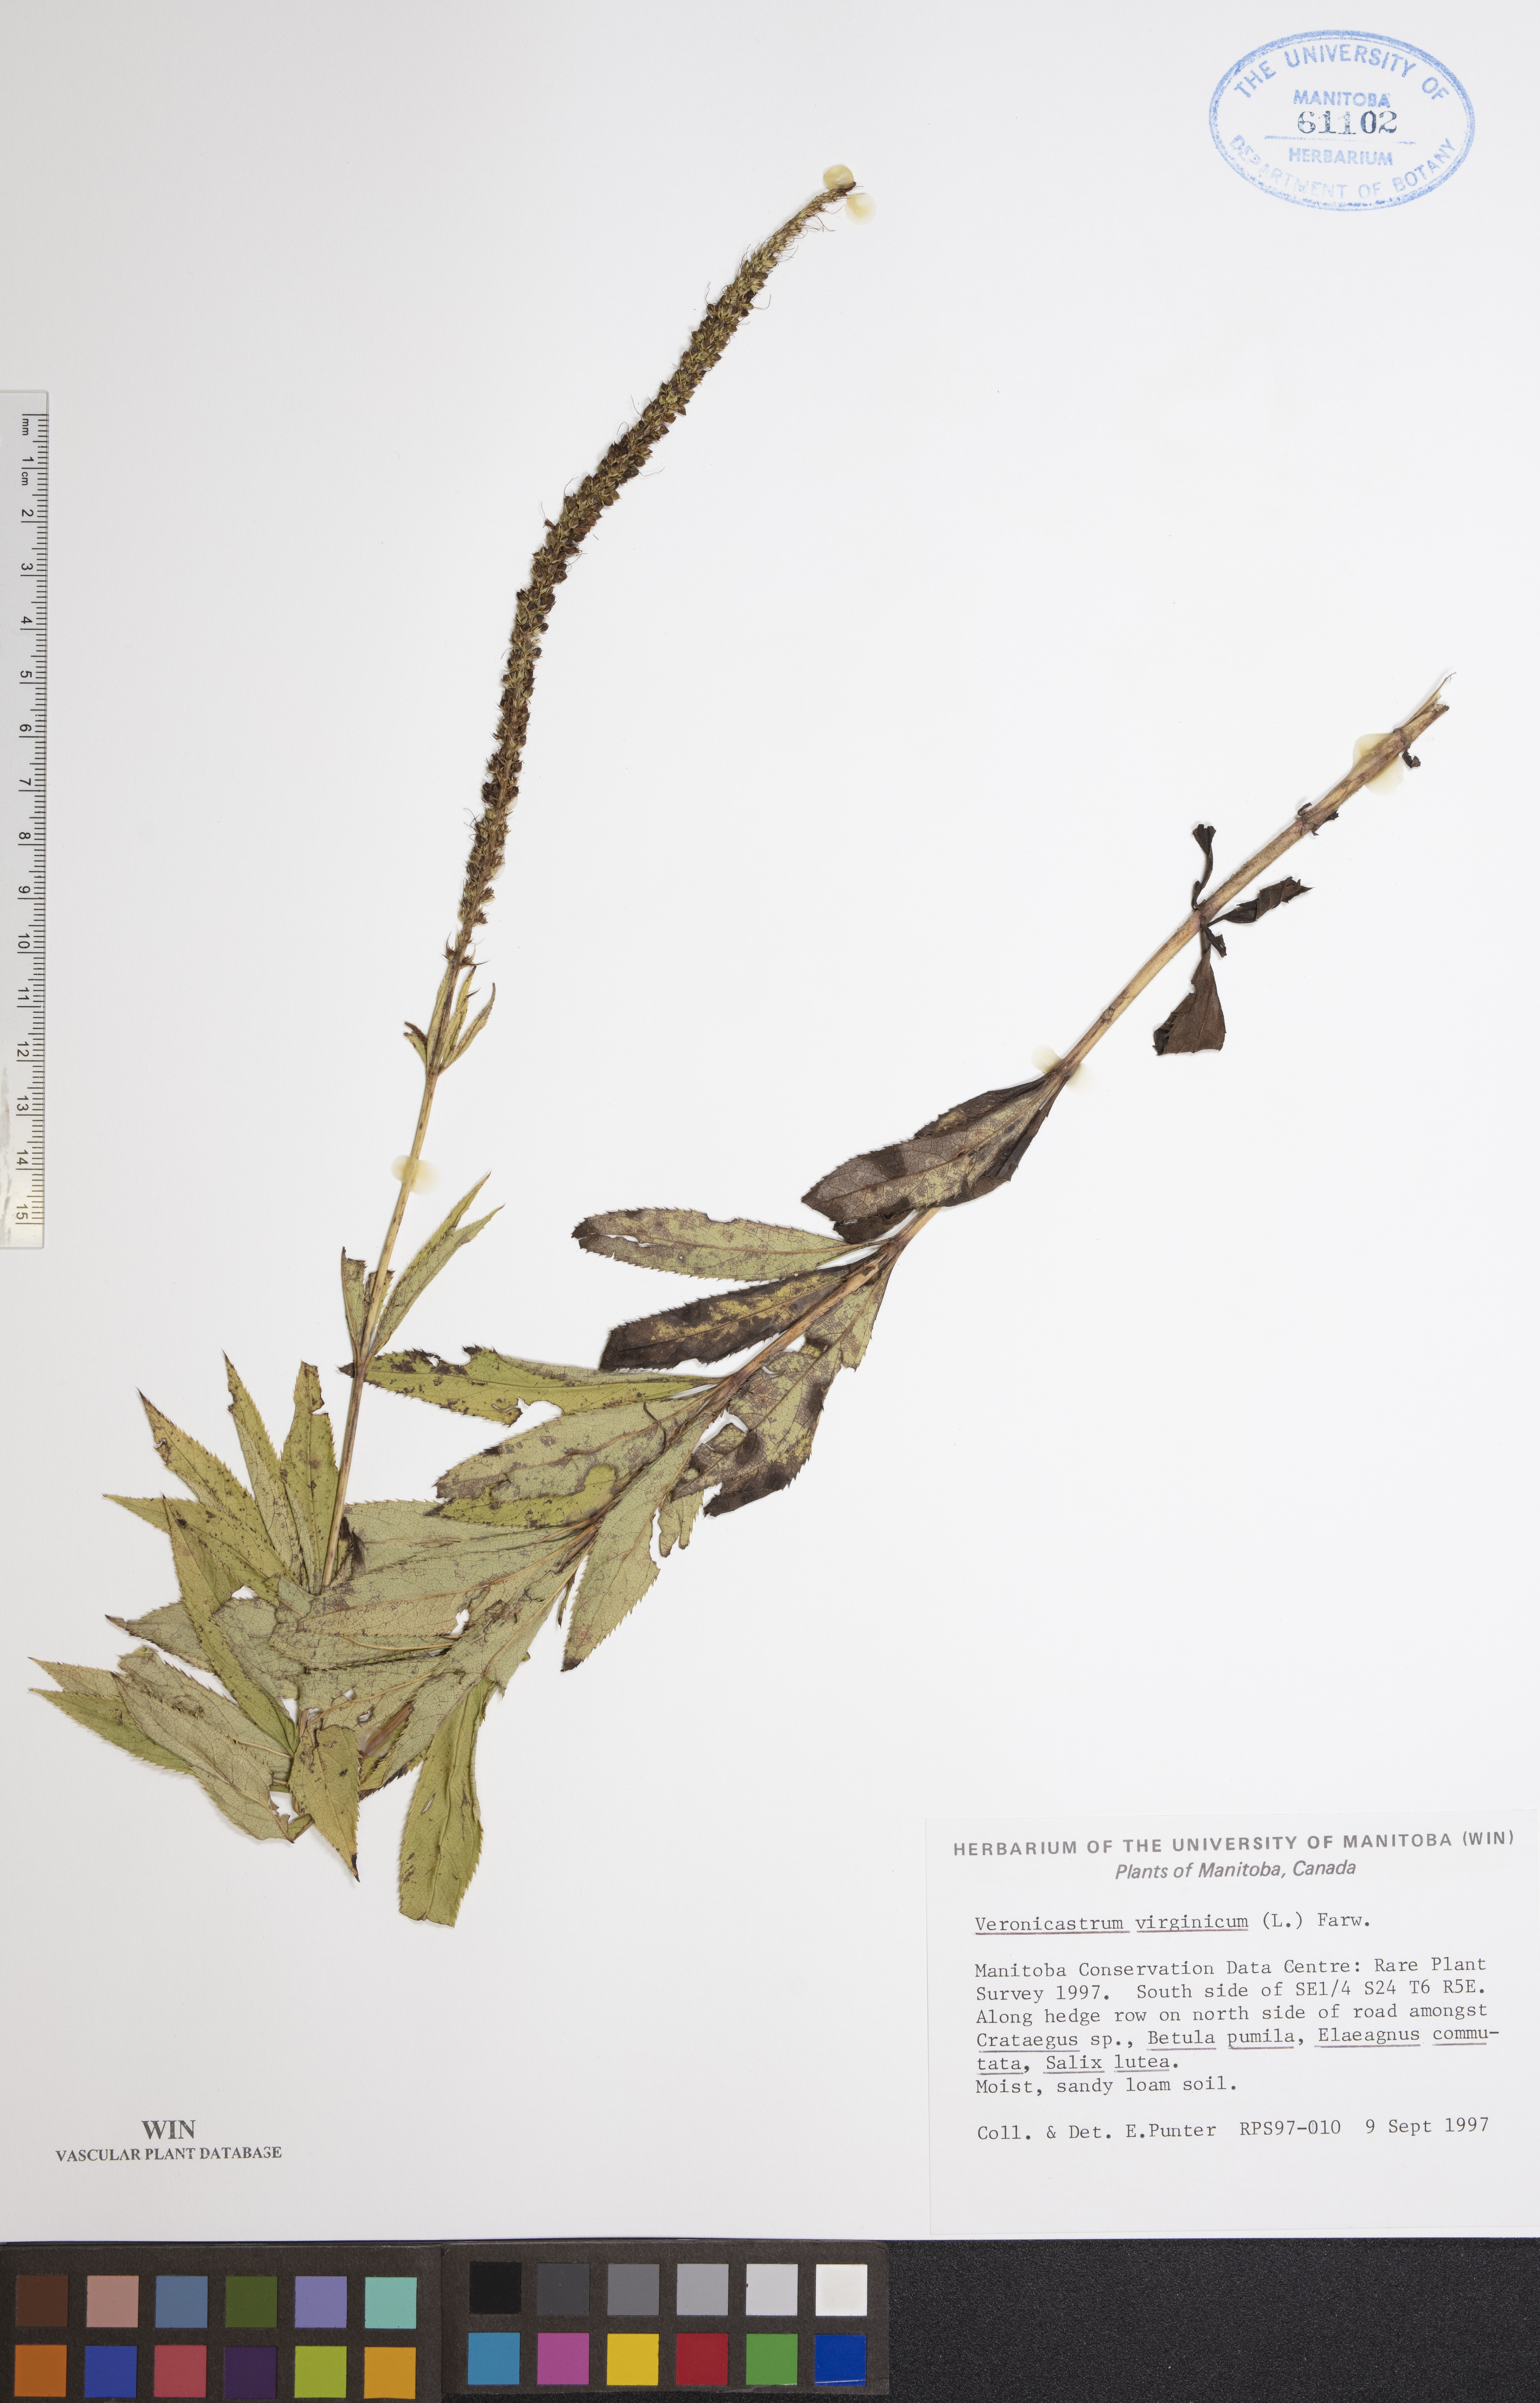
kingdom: Plantae
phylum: Tracheophyta
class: Magnoliopsida
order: Lamiales
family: Plantaginaceae
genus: Veronicastrum
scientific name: Veronicastrum virginicum
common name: Blackroot
